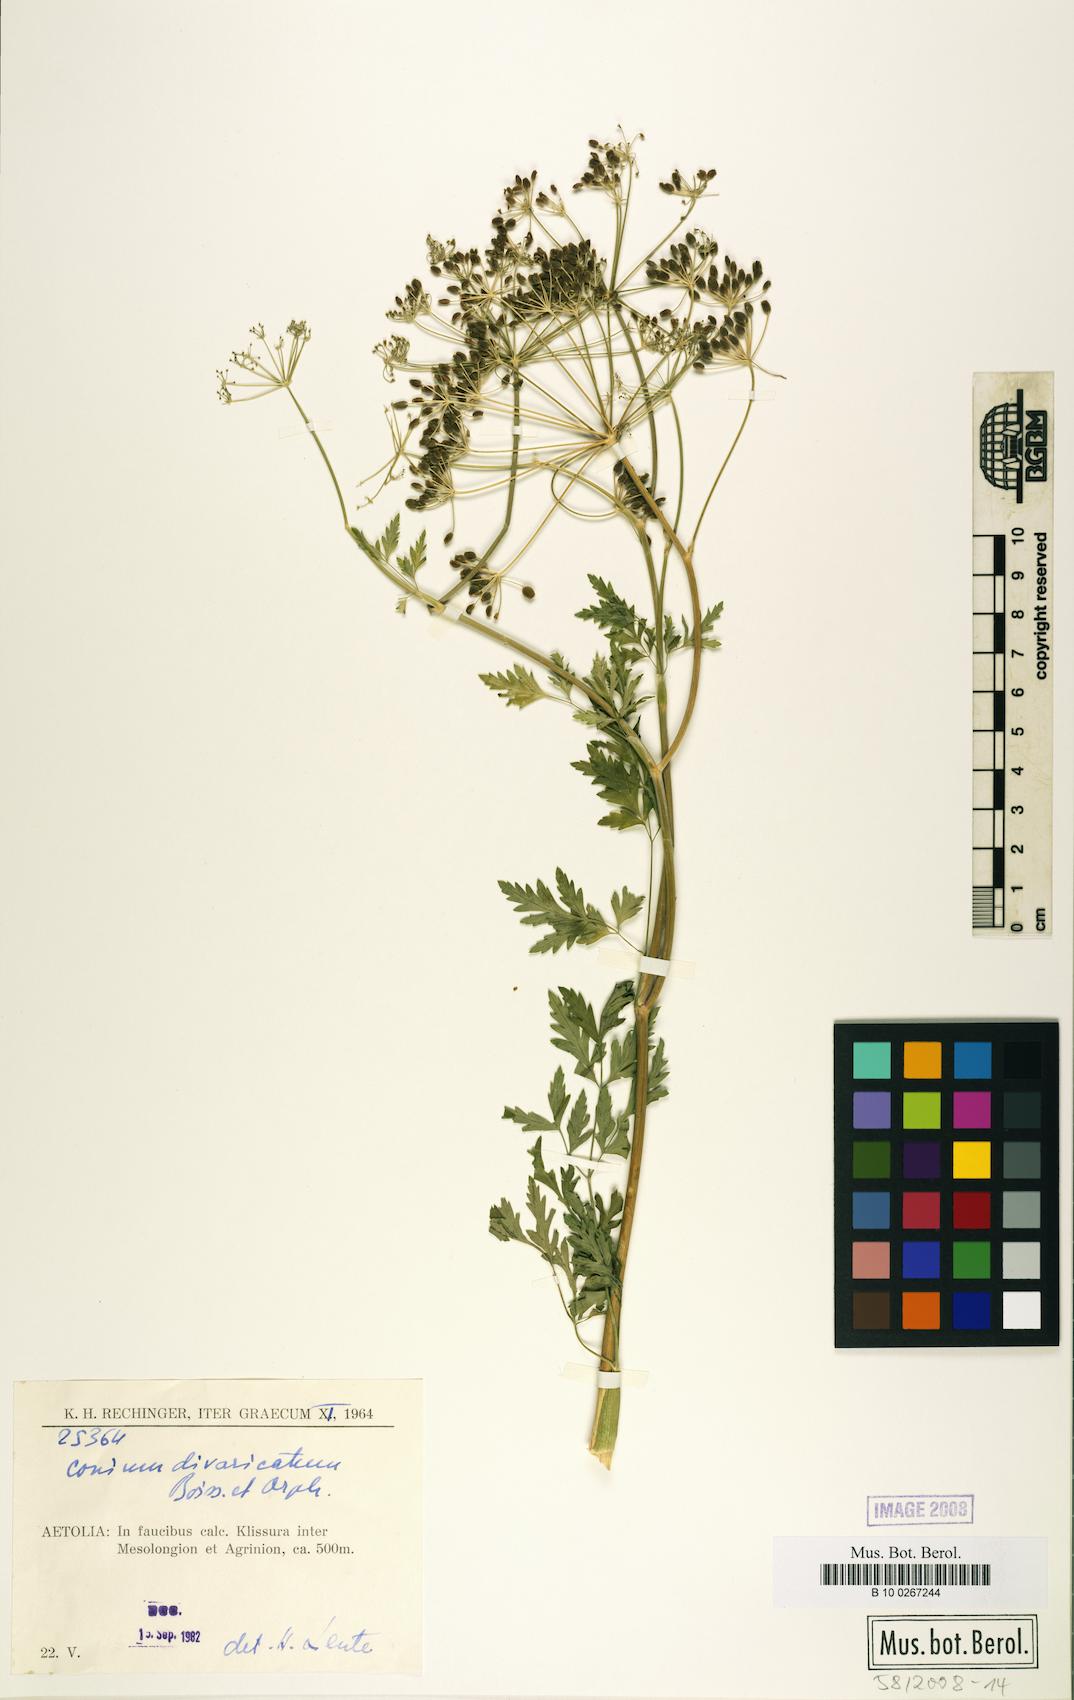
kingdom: Plantae
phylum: Tracheophyta
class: Magnoliopsida
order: Apiales
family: Apiaceae
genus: Conium
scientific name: Conium divaricatum
